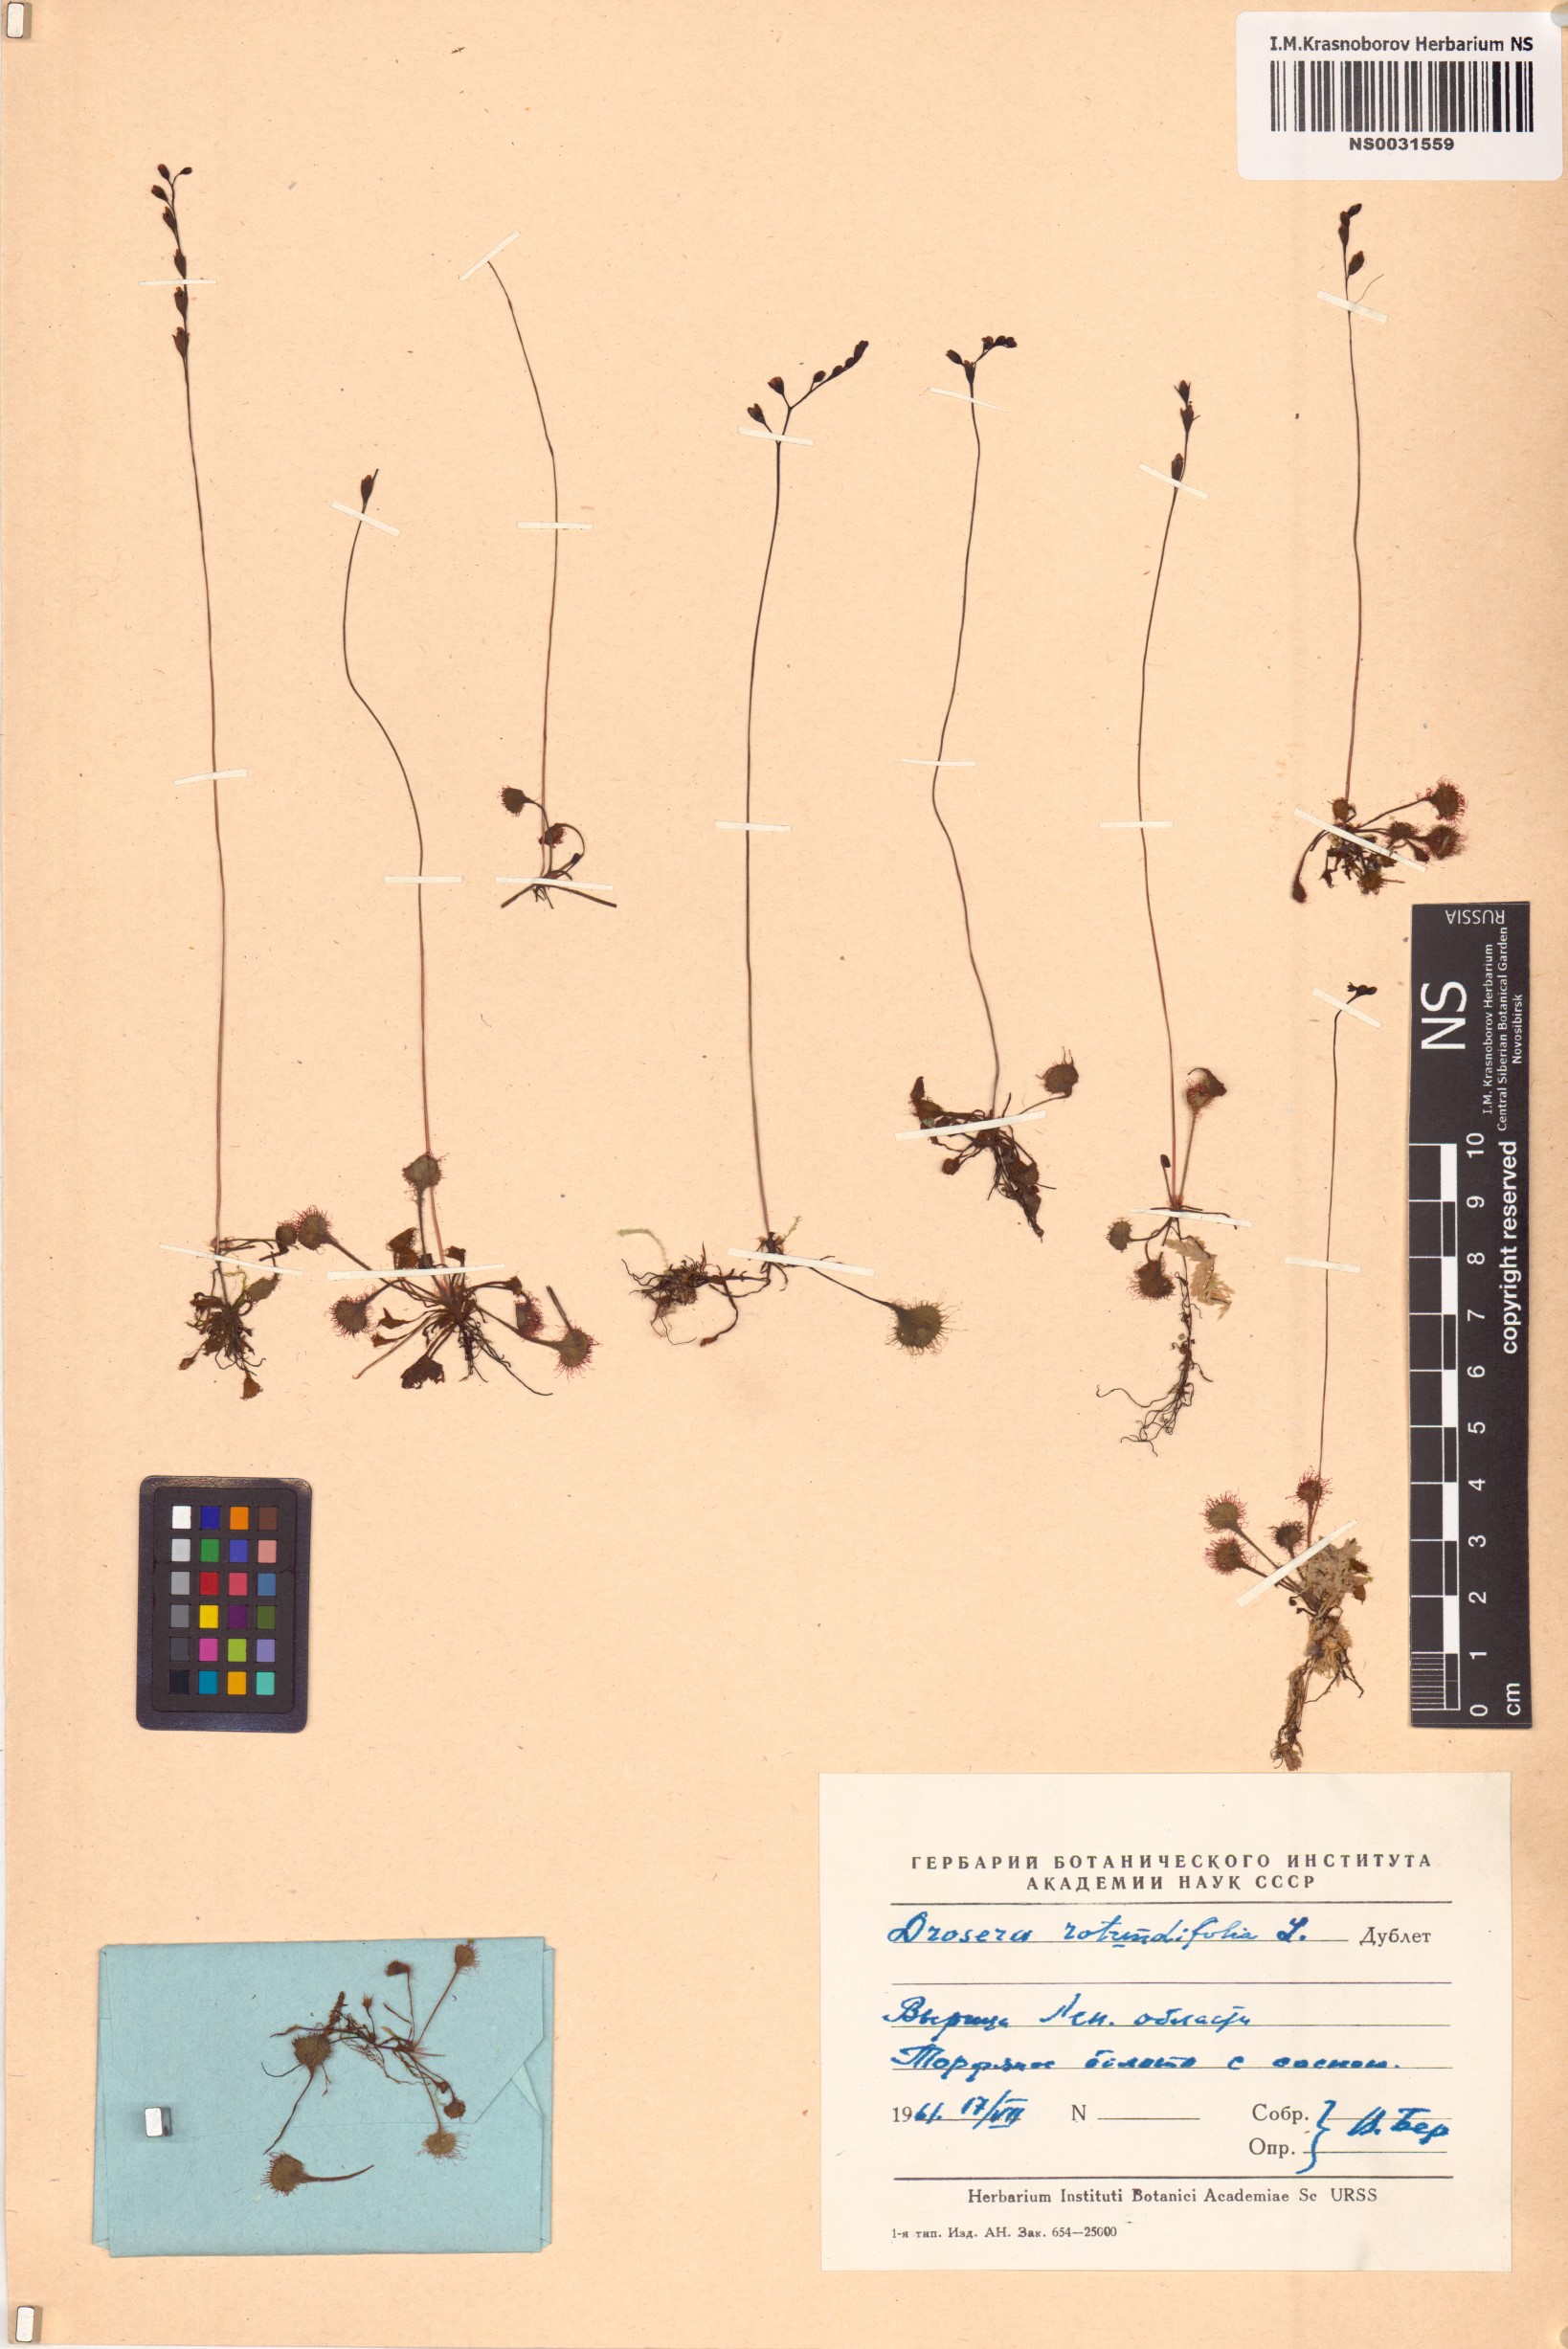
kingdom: Plantae
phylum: Tracheophyta
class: Magnoliopsida
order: Caryophyllales
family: Droseraceae
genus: Drosera
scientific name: Drosera rotundifolia
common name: Round-leaved sundew
